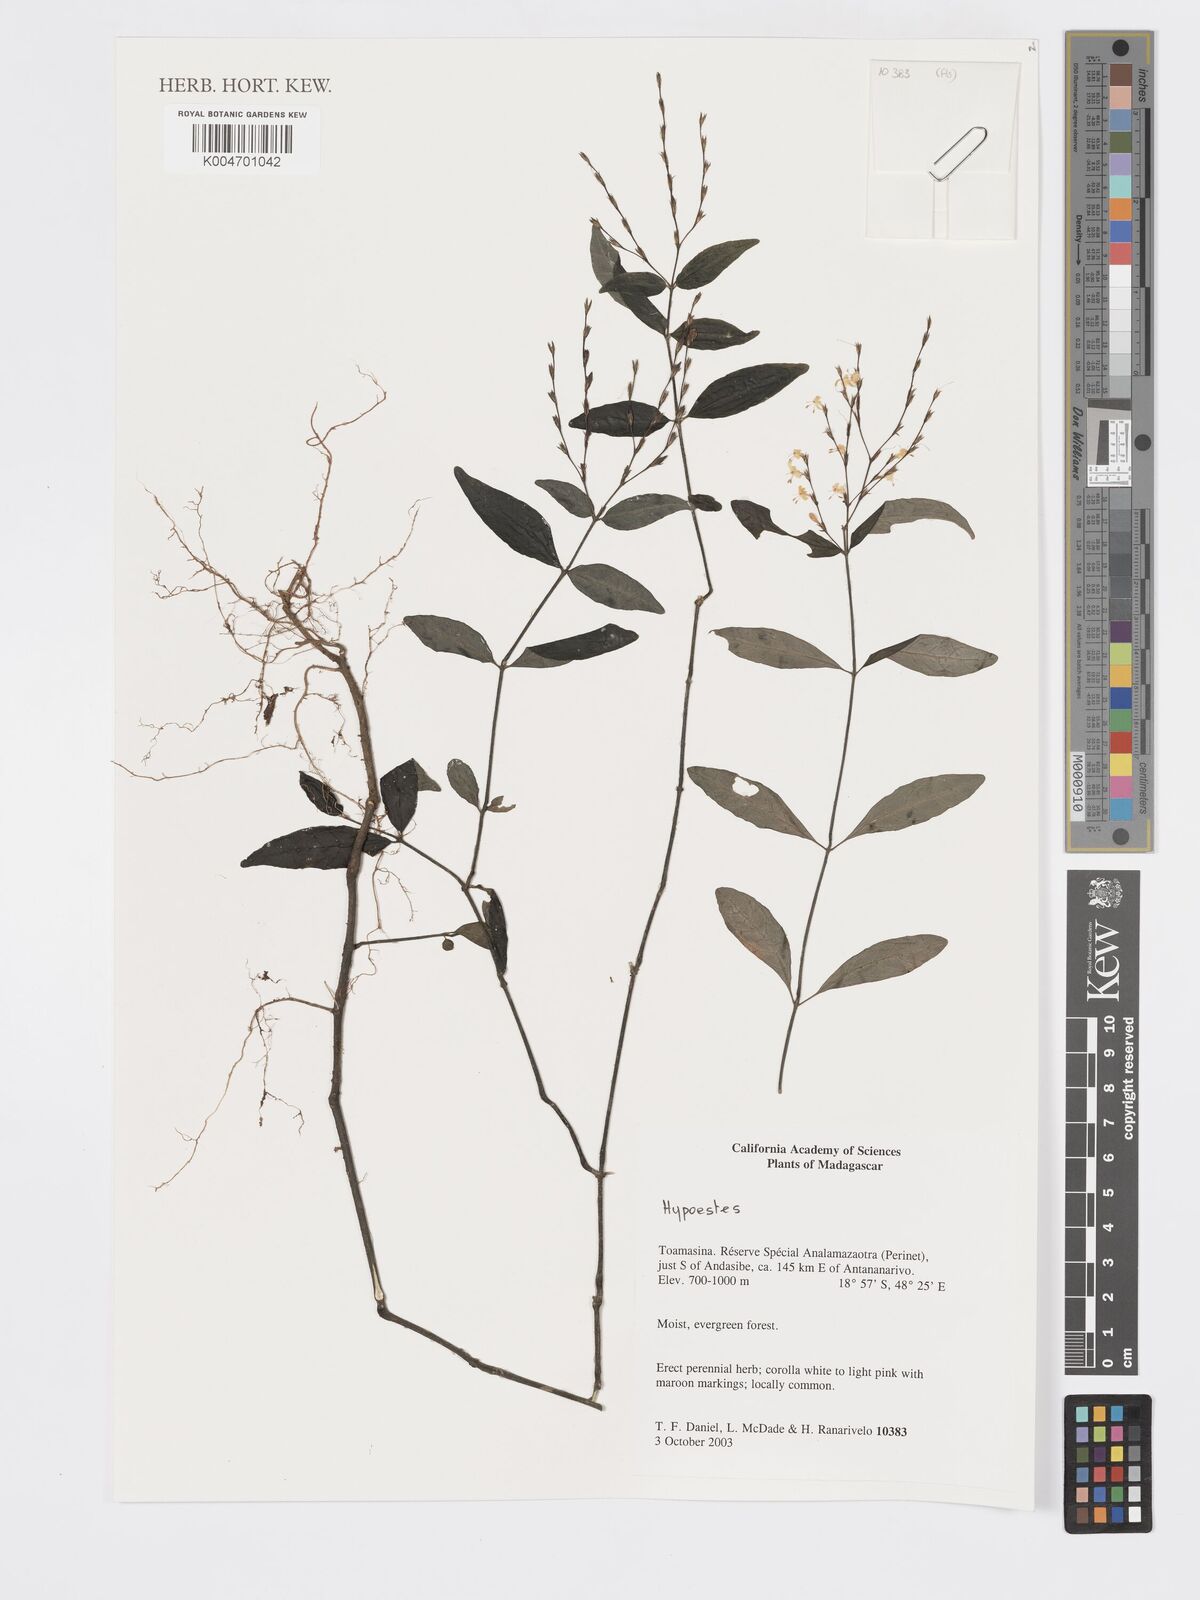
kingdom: Plantae
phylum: Tracheophyta
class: Magnoliopsida
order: Lamiales
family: Acanthaceae
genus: Hypoestes
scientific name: Hypoestes
